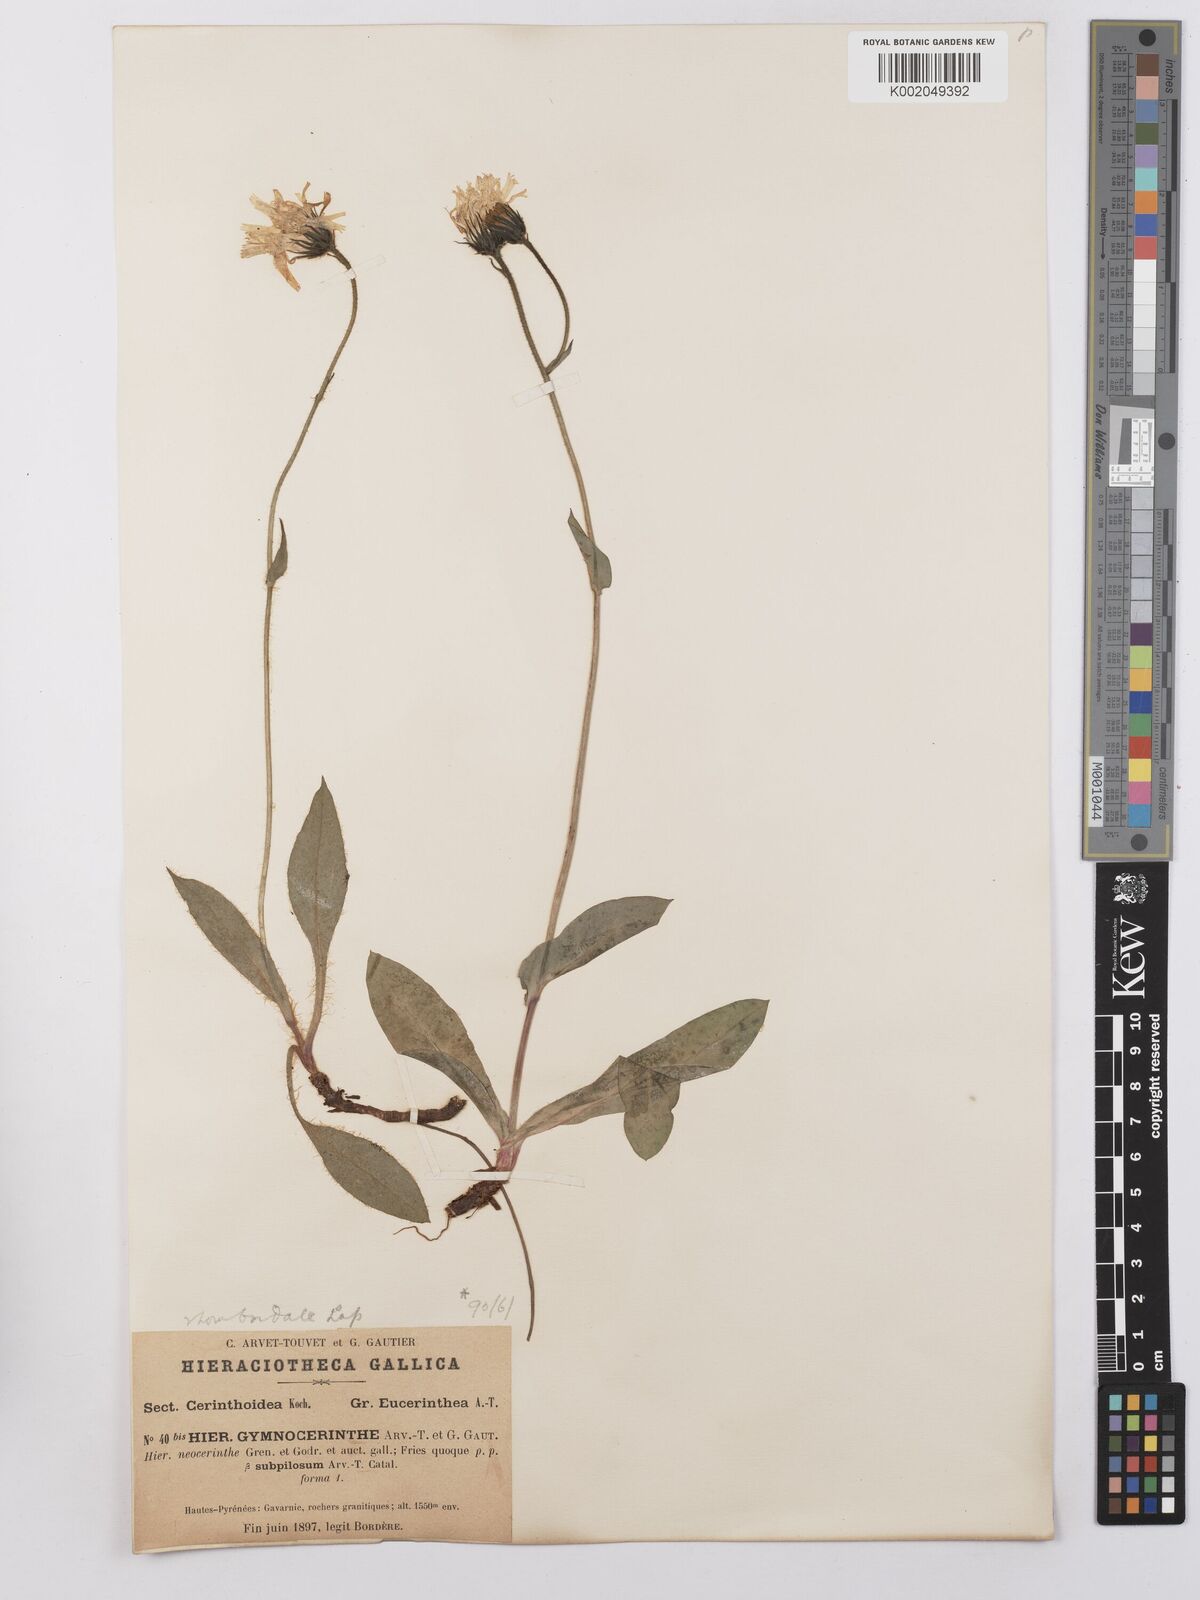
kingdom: Plantae
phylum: Tracheophyta
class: Magnoliopsida
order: Asterales
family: Asteraceae
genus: Hieracium
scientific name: Hieracium cerinthoides
